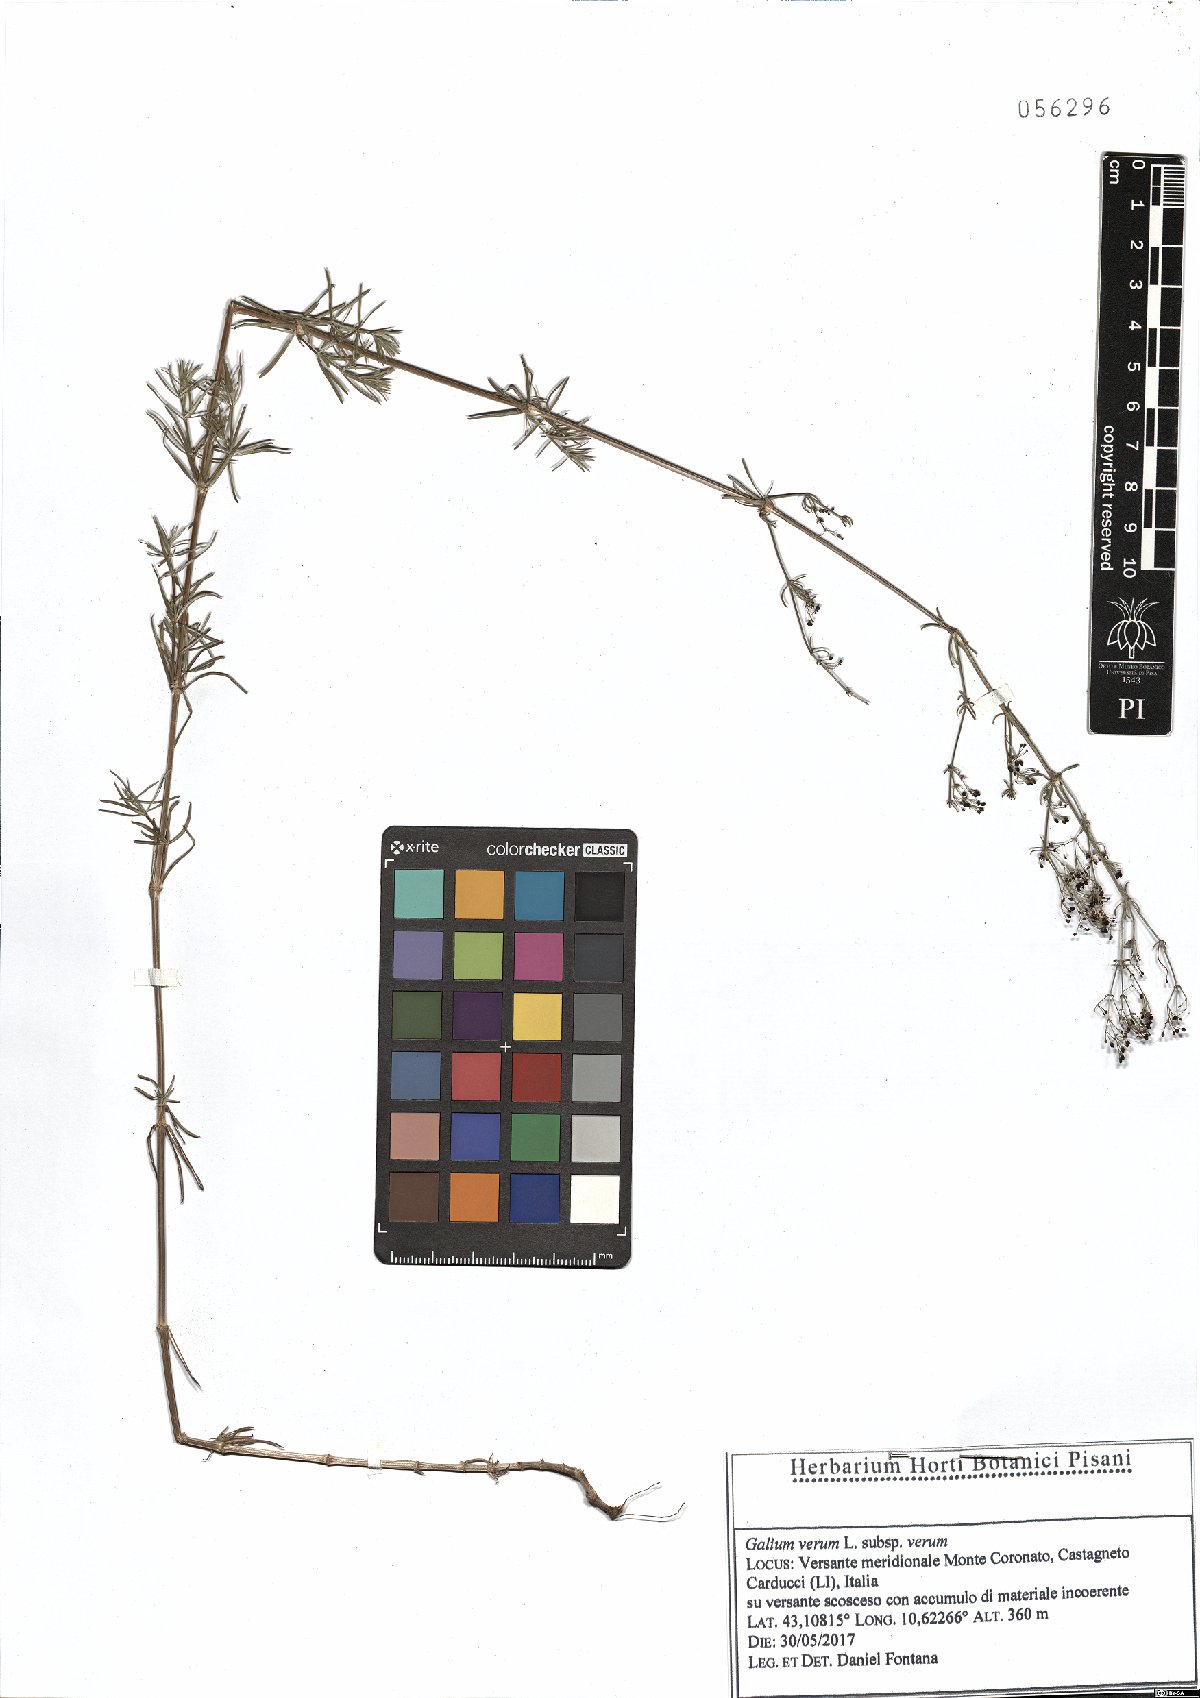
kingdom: Plantae
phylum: Tracheophyta
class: Magnoliopsida
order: Gentianales
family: Rubiaceae
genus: Galium
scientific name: Galium verum
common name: Lady's bedstraw
